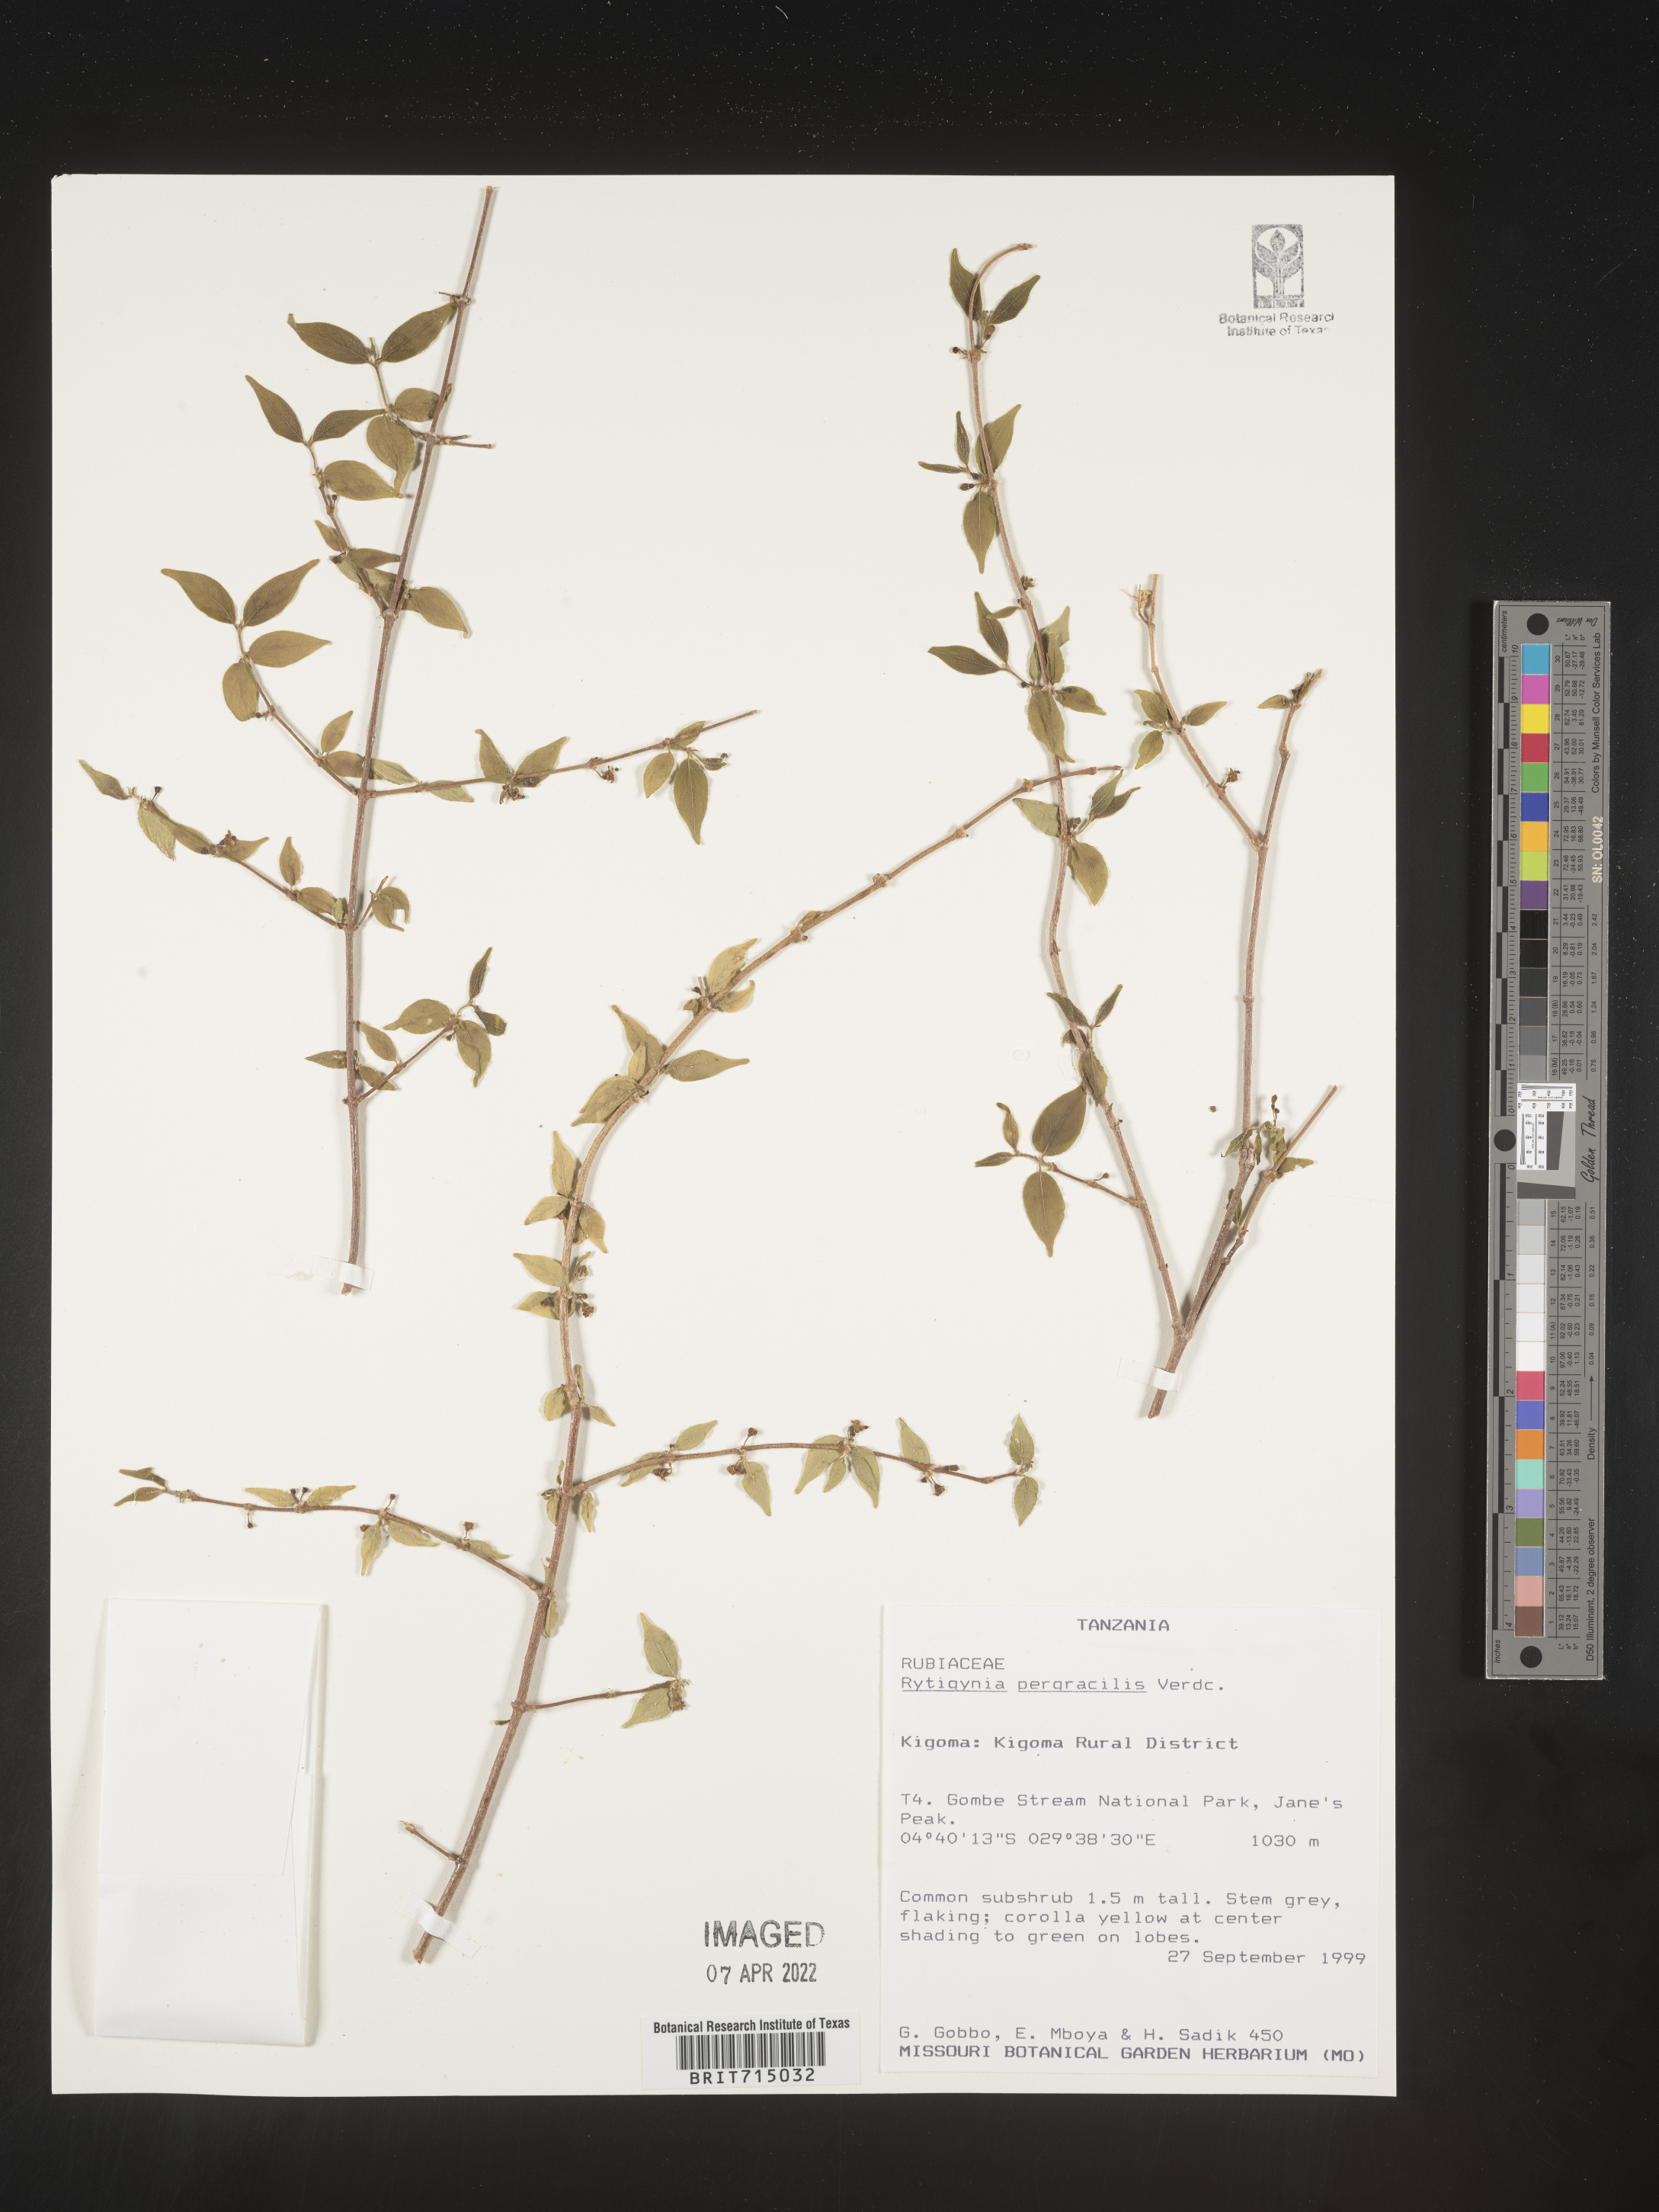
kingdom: Plantae
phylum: Tracheophyta
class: Magnoliopsida
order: Gentianales
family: Rubiaceae
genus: Rytigynia
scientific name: Rytigynia
